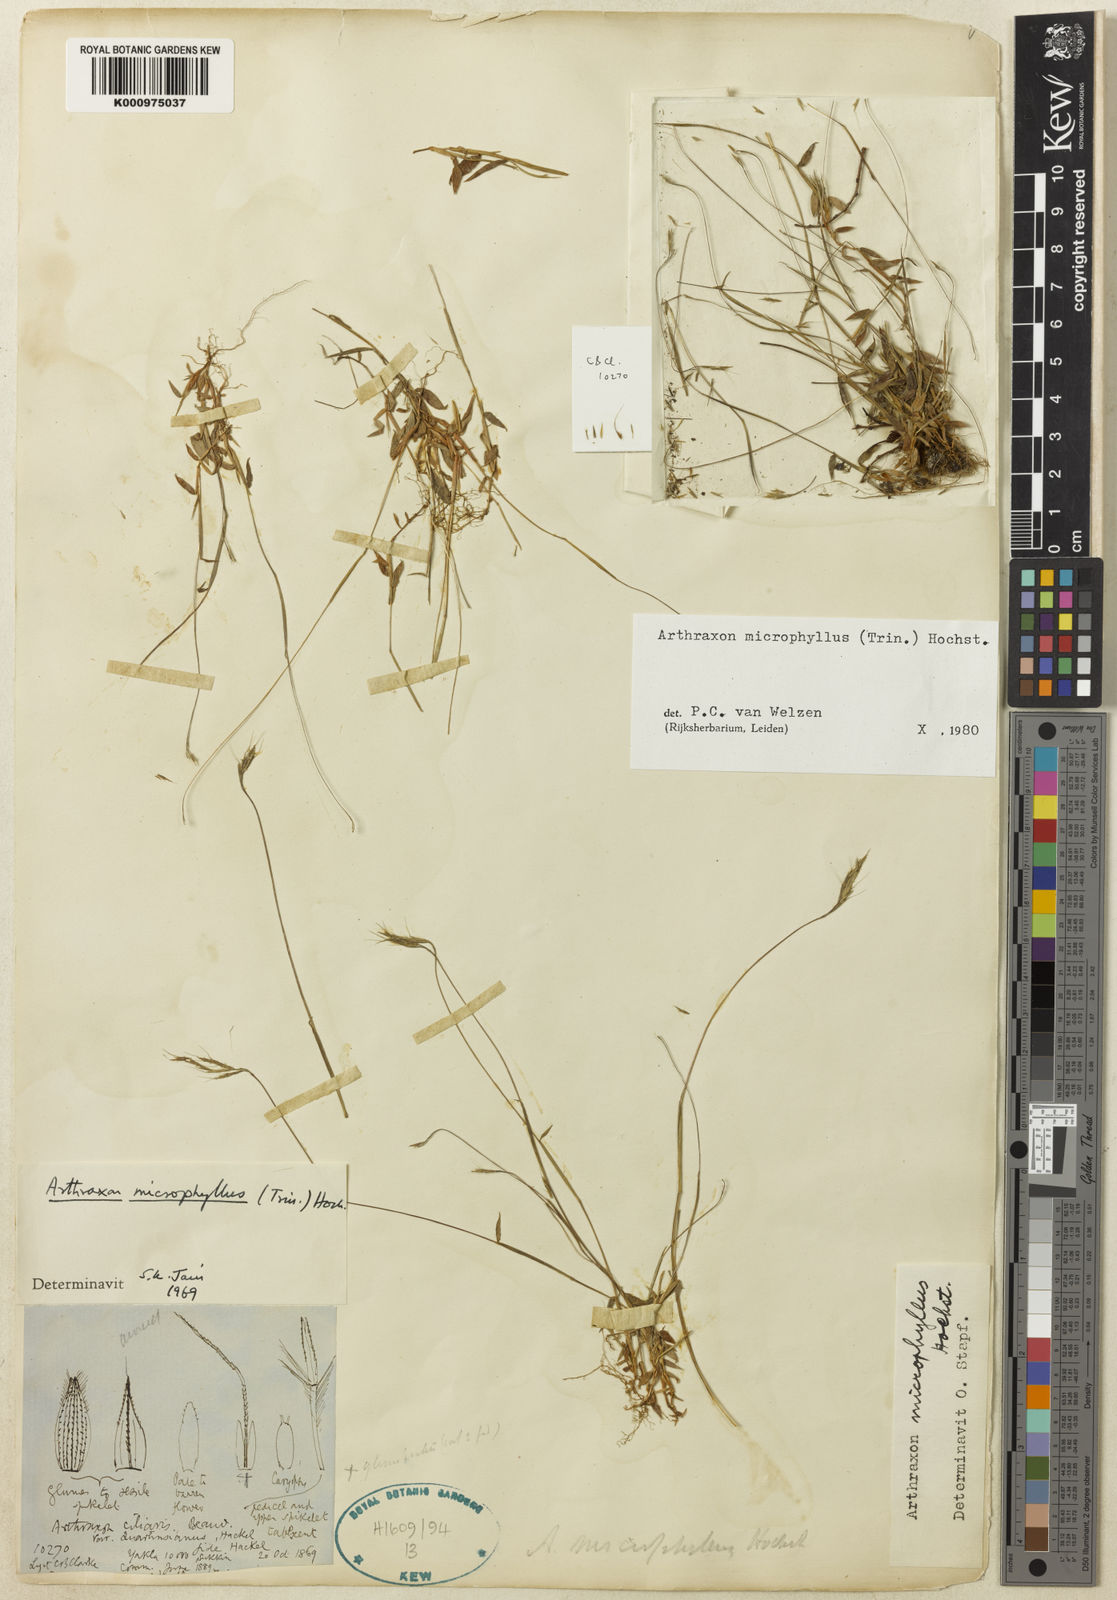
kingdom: Plantae
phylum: Tracheophyta
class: Liliopsida
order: Poales
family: Poaceae
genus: Arthraxon
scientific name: Arthraxon microphyllus
